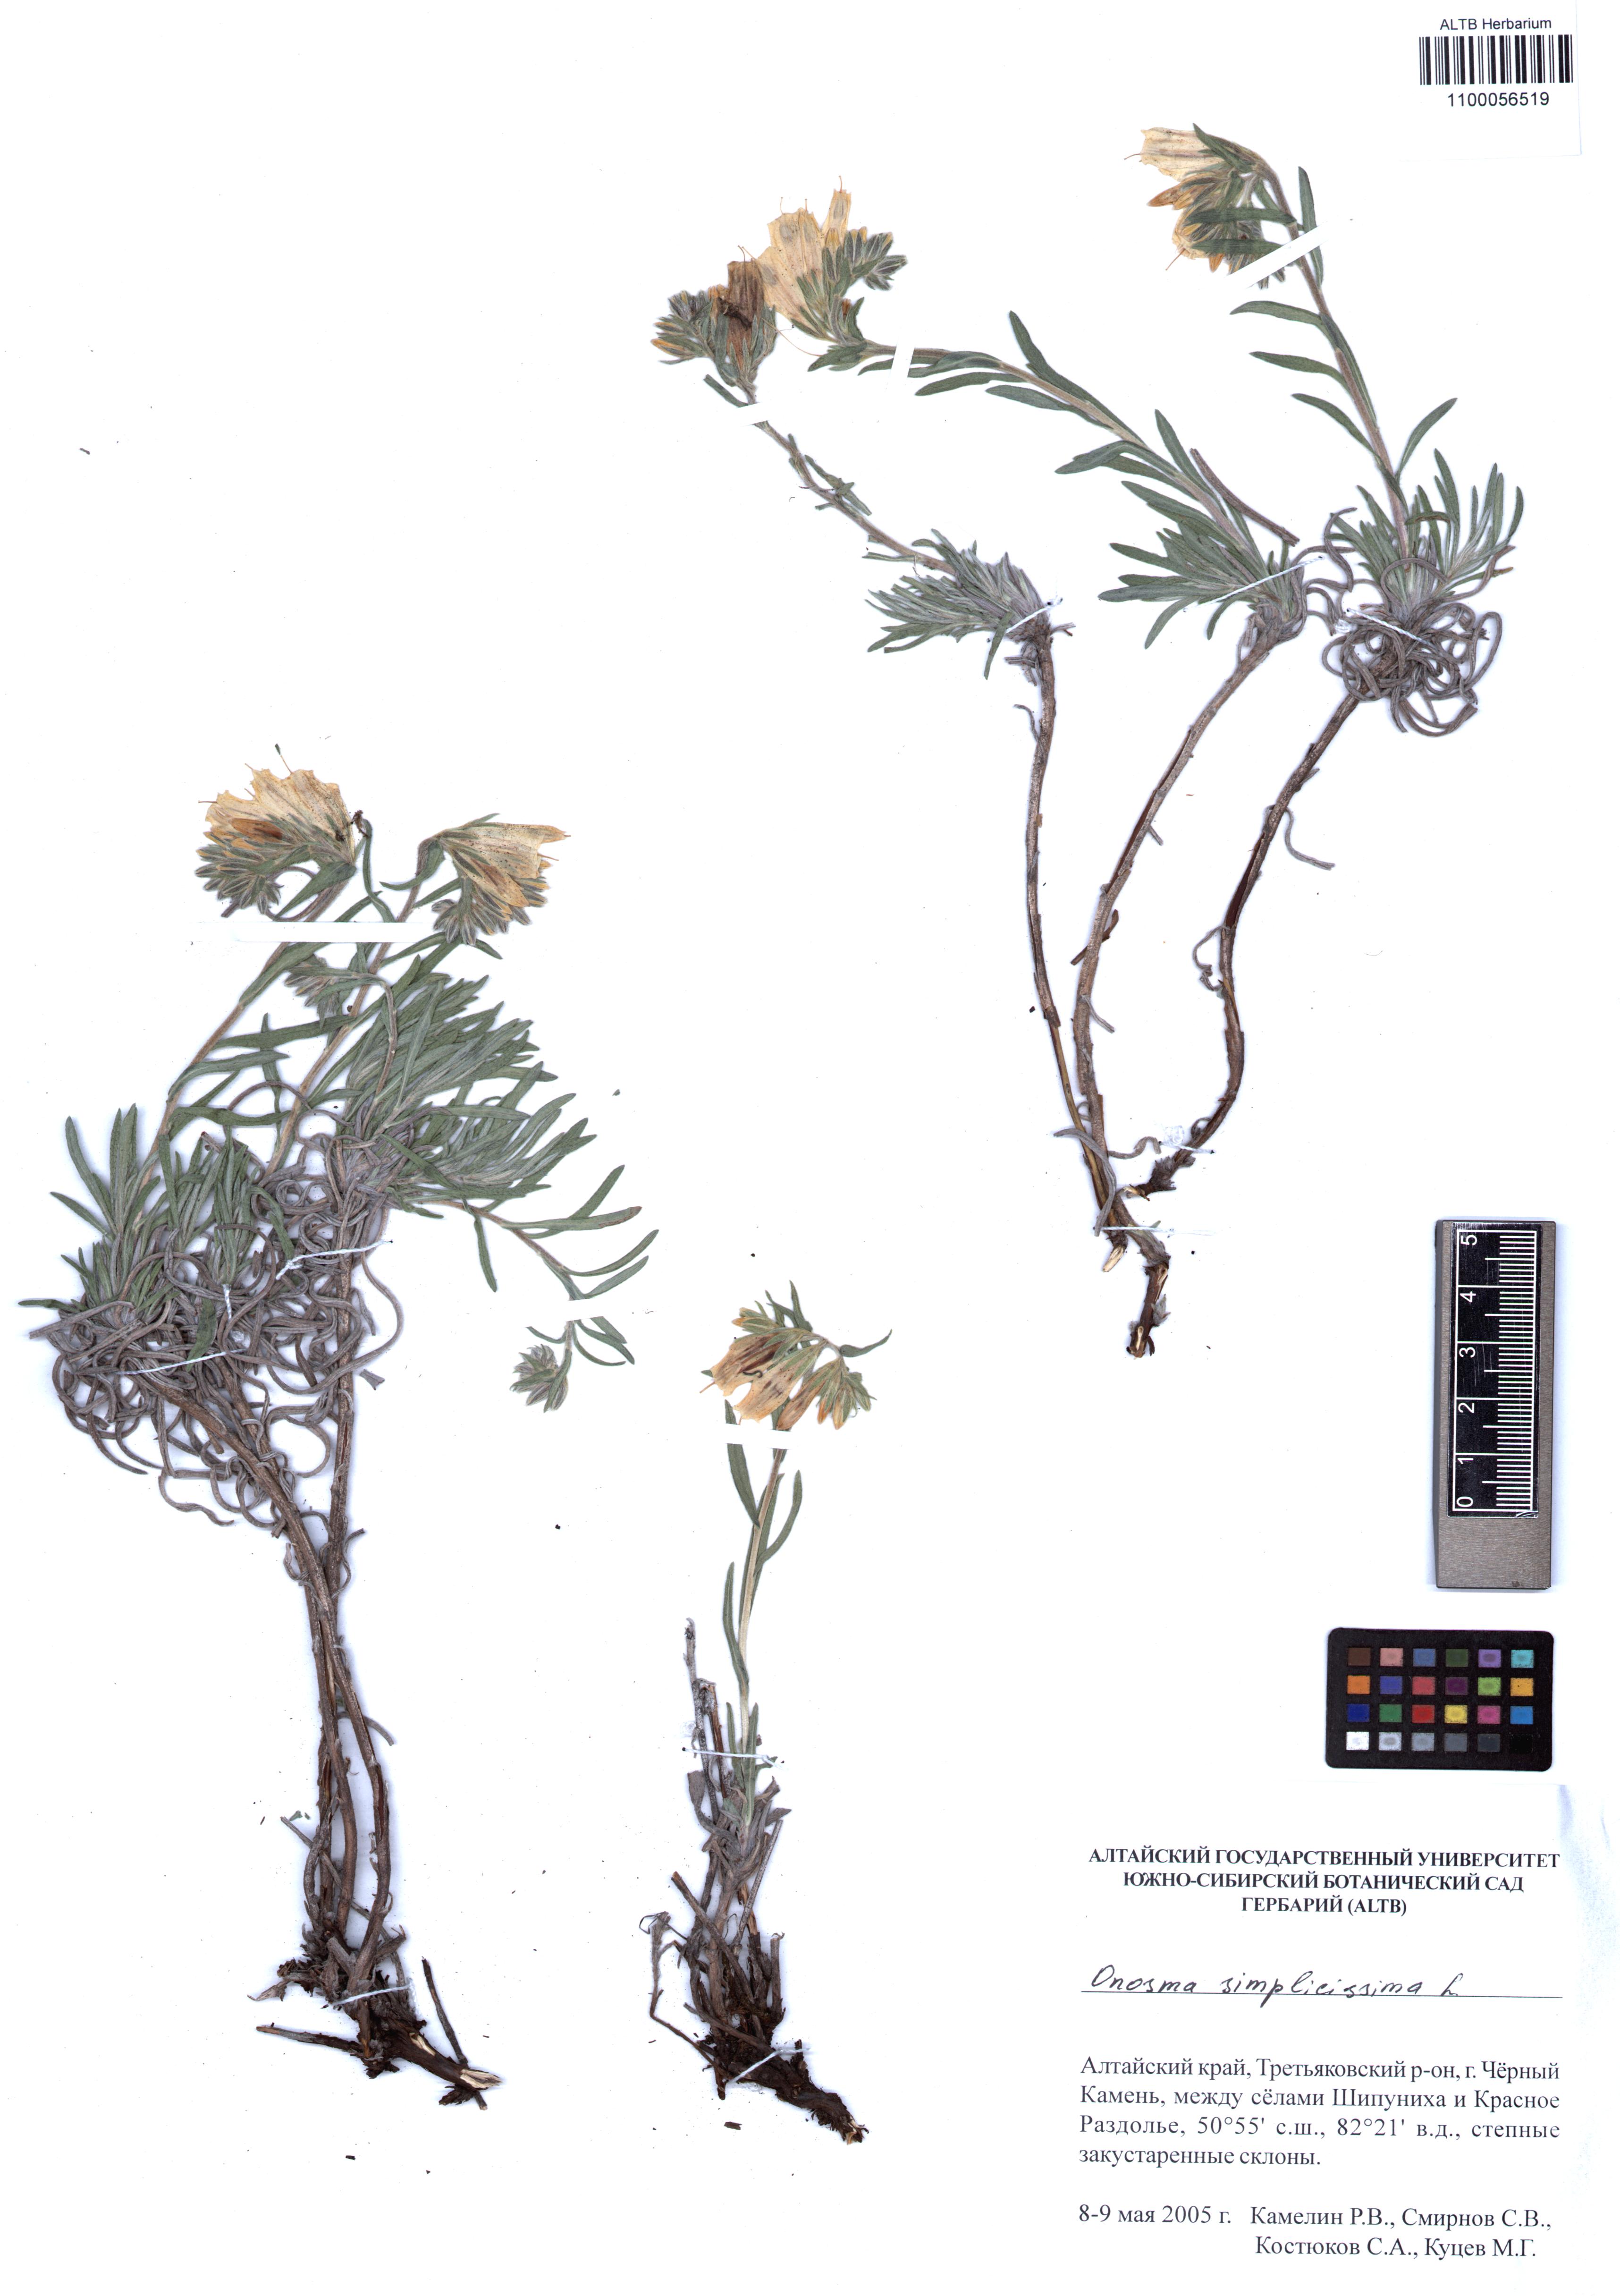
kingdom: Plantae
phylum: Tracheophyta
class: Magnoliopsida
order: Boraginales
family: Boraginaceae
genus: Onosma
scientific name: Onosma simplicissima
